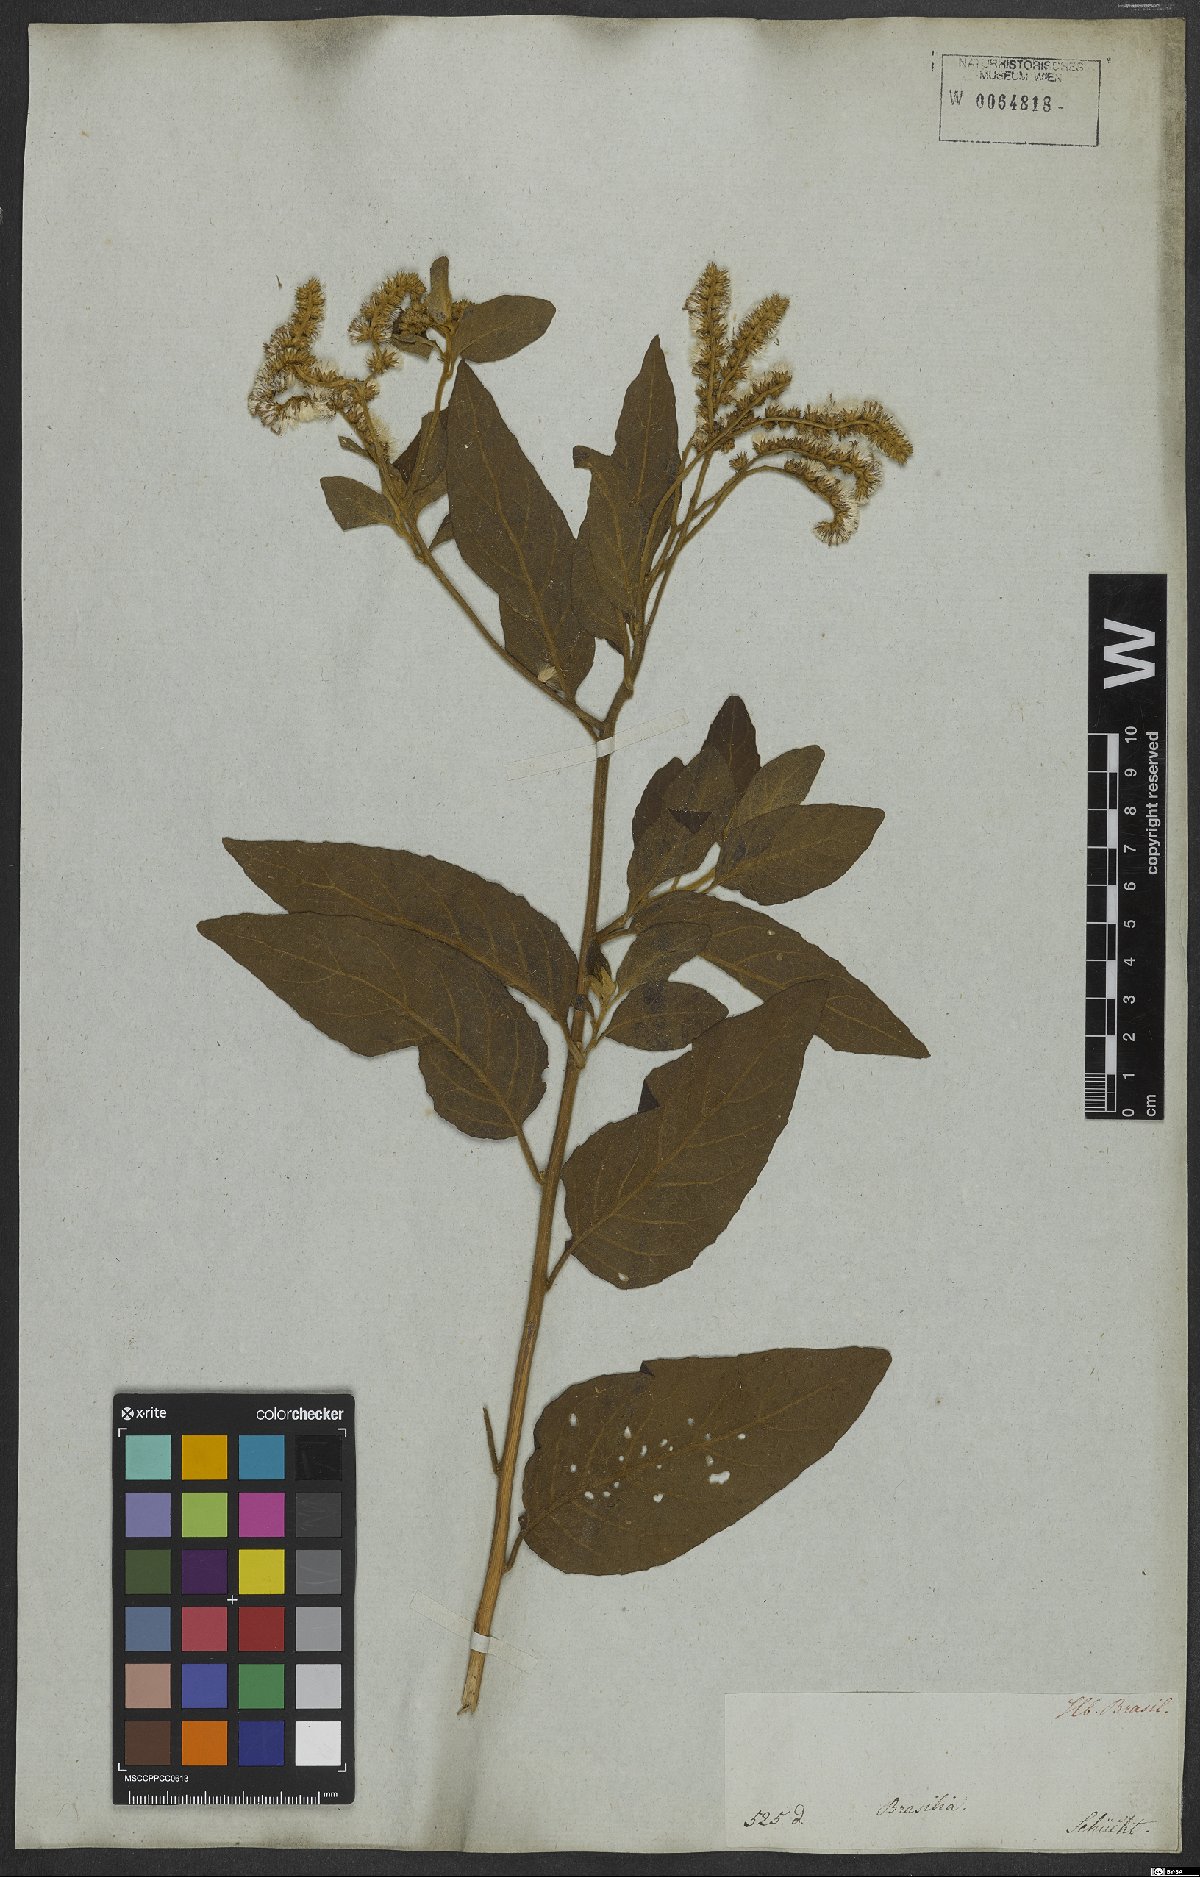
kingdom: Plantae
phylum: Tracheophyta
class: Magnoliopsida
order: Asterales
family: Asteraceae
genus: Cyrtocymura
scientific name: Cyrtocymura scorpioides
